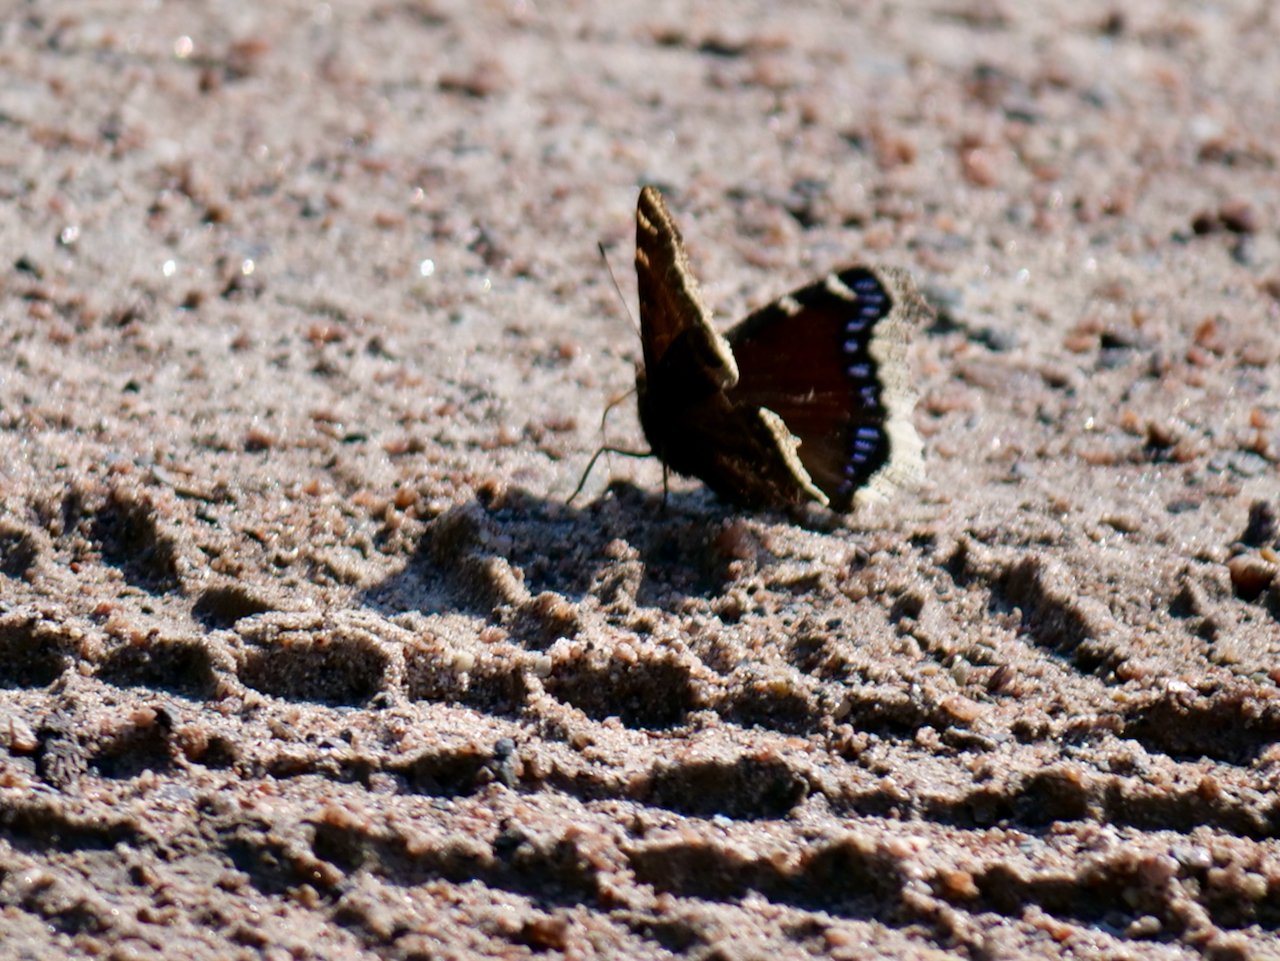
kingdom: Animalia
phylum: Arthropoda
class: Insecta
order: Lepidoptera
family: Nymphalidae
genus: Nymphalis
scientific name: Nymphalis antiopa
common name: Mourning Cloak
